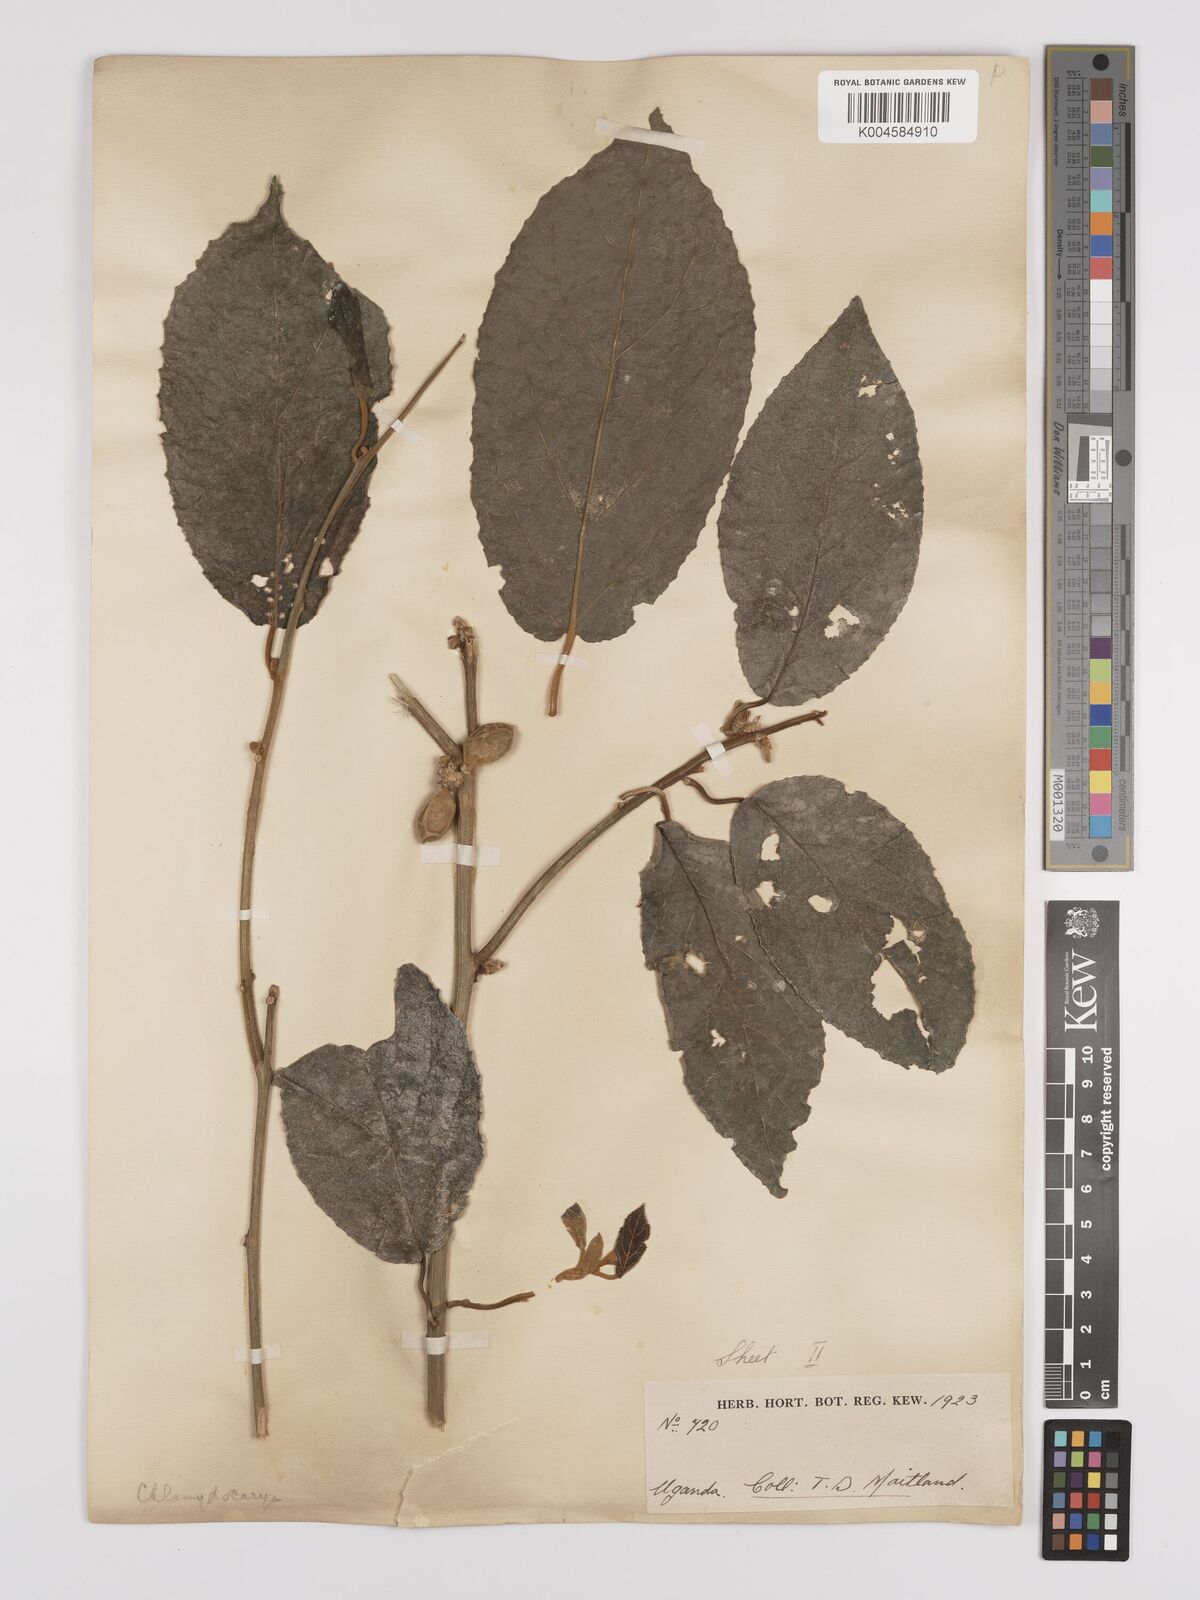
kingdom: Plantae
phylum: Tracheophyta
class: Magnoliopsida
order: Icacinales
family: Icacinaceae
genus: Pyrenacantha
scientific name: Pyrenacantha staudtii
